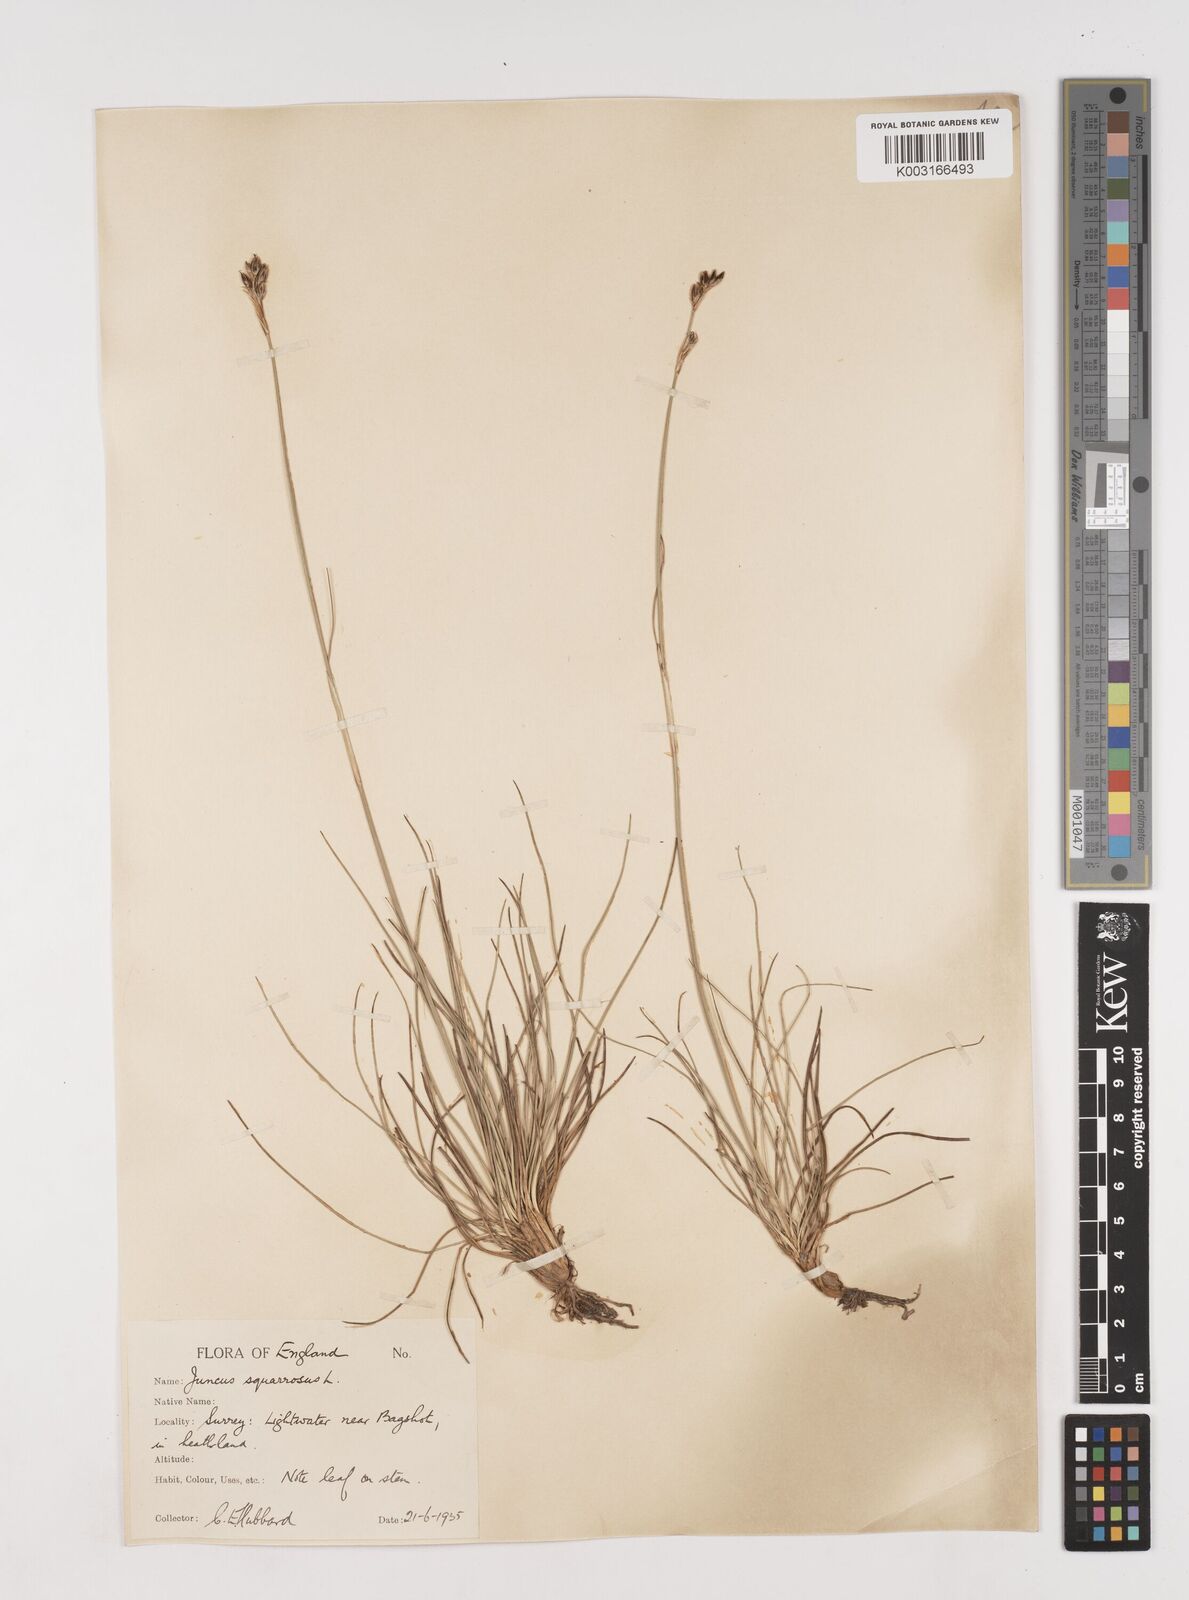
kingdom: Plantae
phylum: Tracheophyta
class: Liliopsida
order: Poales
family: Juncaceae
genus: Juncus
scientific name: Juncus squarrosus
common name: Heath rush
